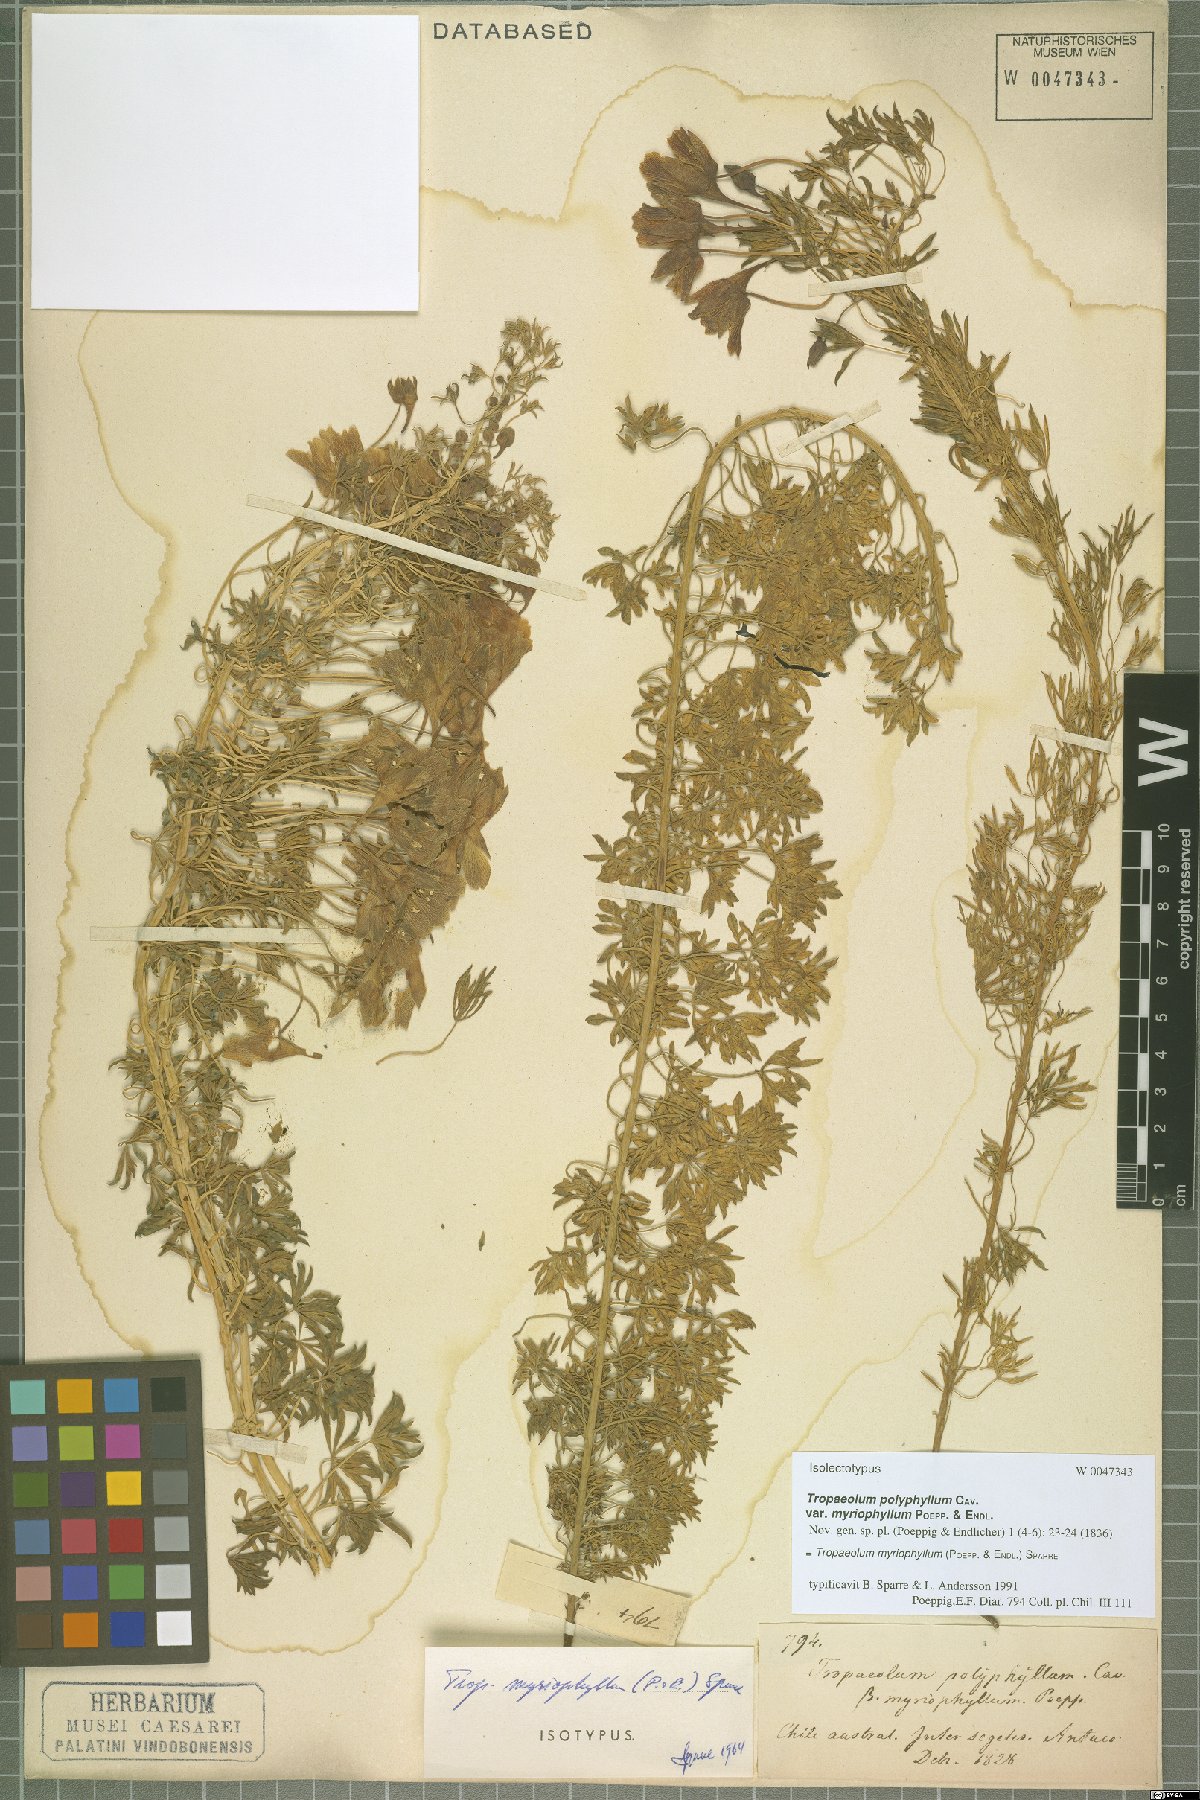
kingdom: Plantae
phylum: Tracheophyta
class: Magnoliopsida
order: Brassicales
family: Tropaeolaceae
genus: Tropaeolum
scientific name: Tropaeolum myriophyllum
